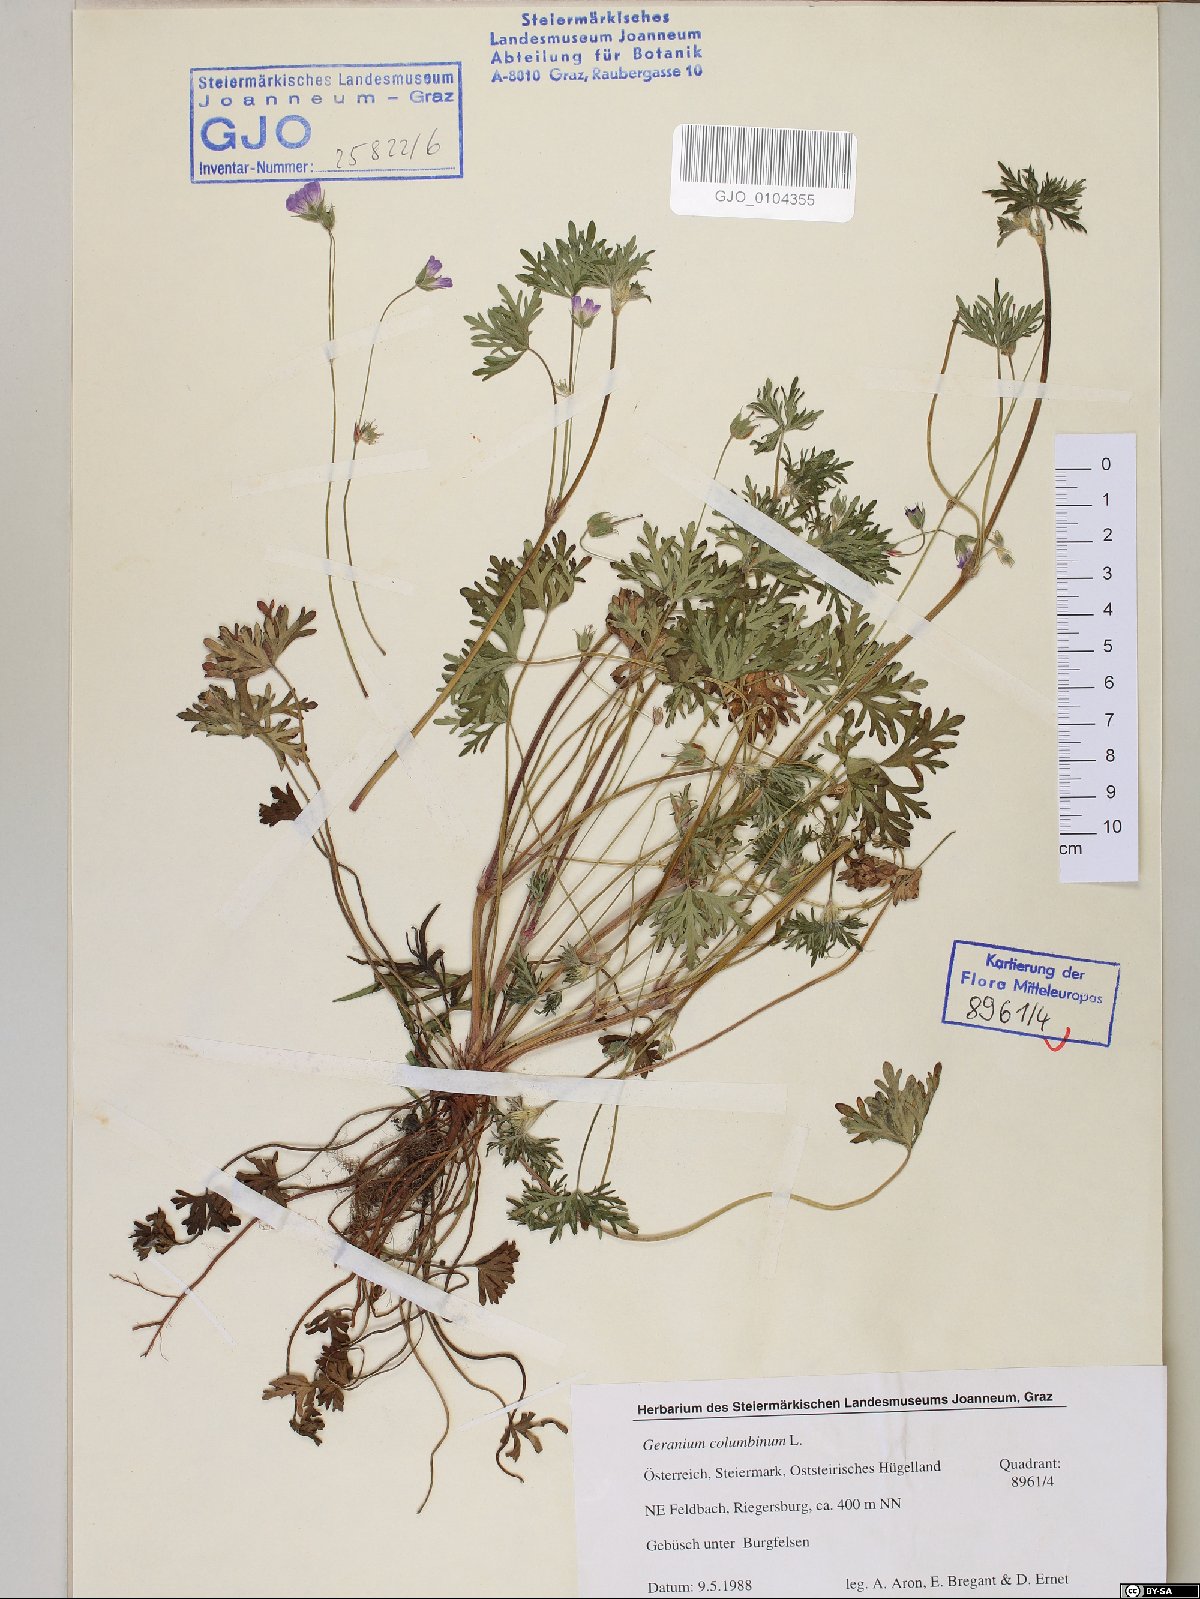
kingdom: Plantae
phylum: Tracheophyta
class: Magnoliopsida
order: Geraniales
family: Geraniaceae
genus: Geranium
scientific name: Geranium columbinum
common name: Long-stalked crane's-bill
